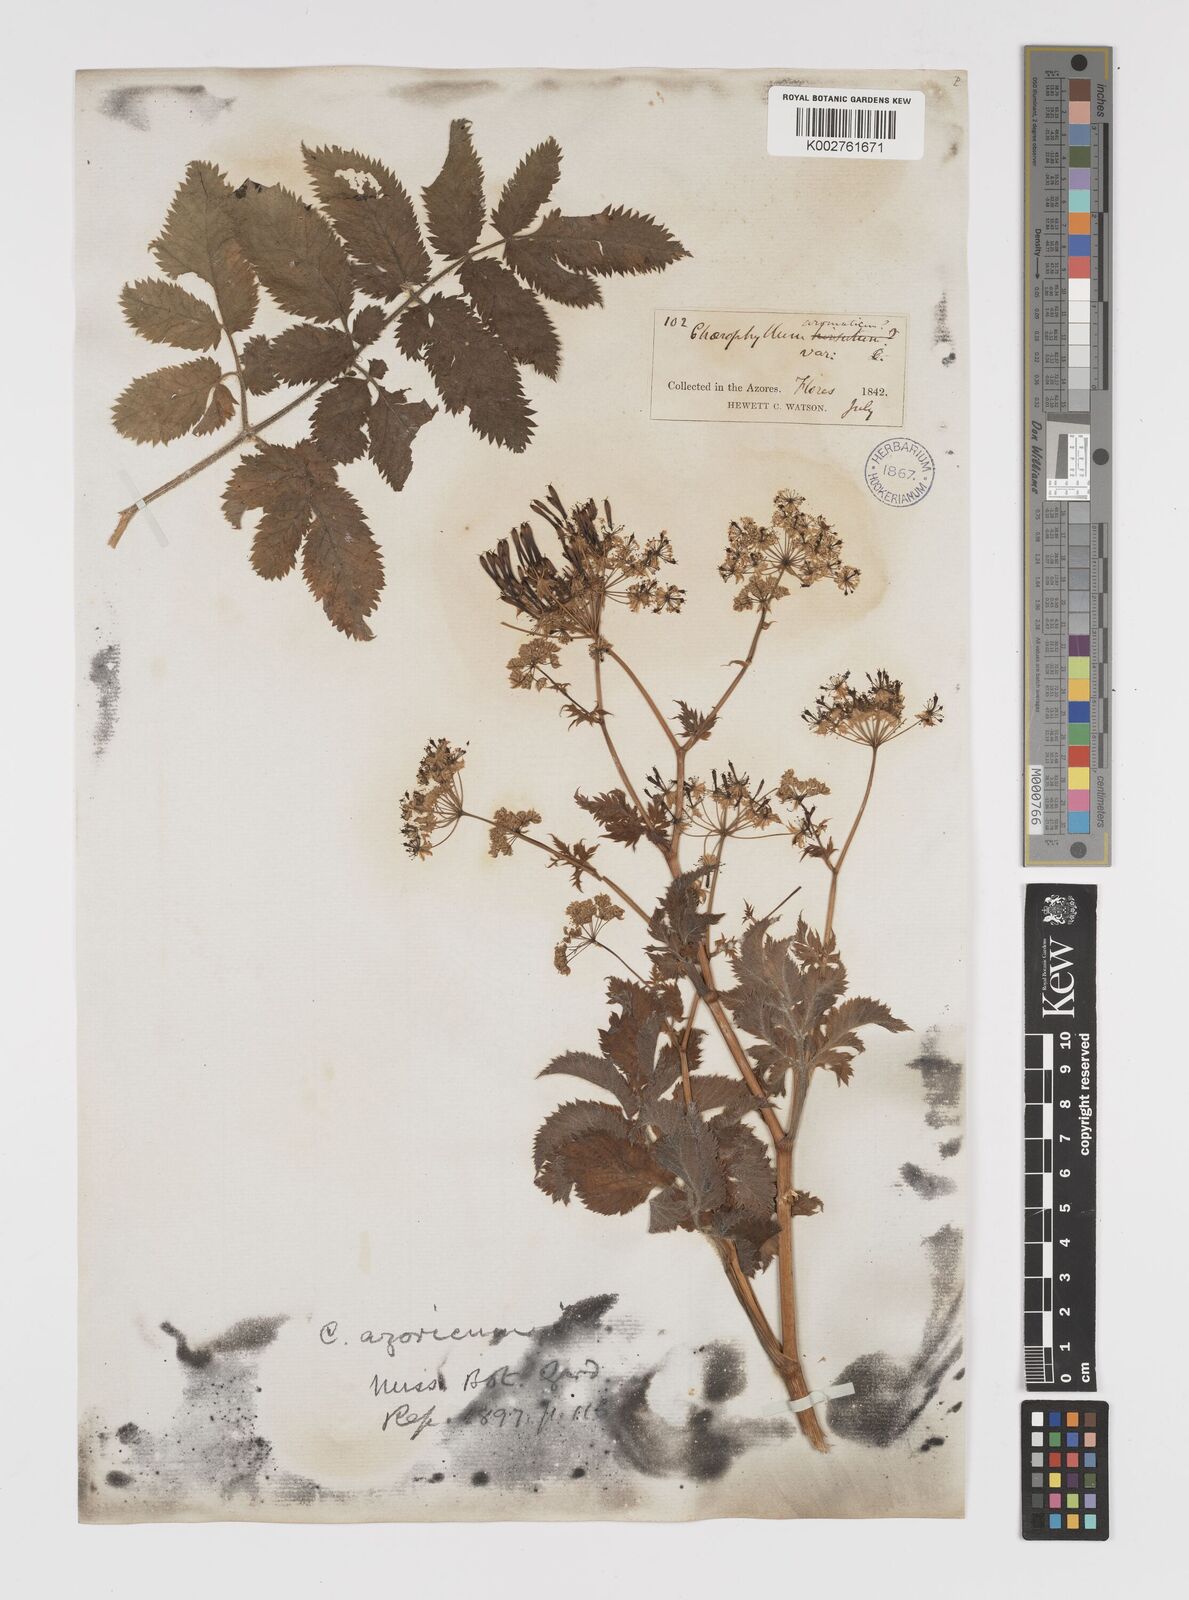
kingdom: Plantae
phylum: Tracheophyta
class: Magnoliopsida
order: Apiales
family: Apiaceae
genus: Chaerophyllum
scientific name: Chaerophyllum
